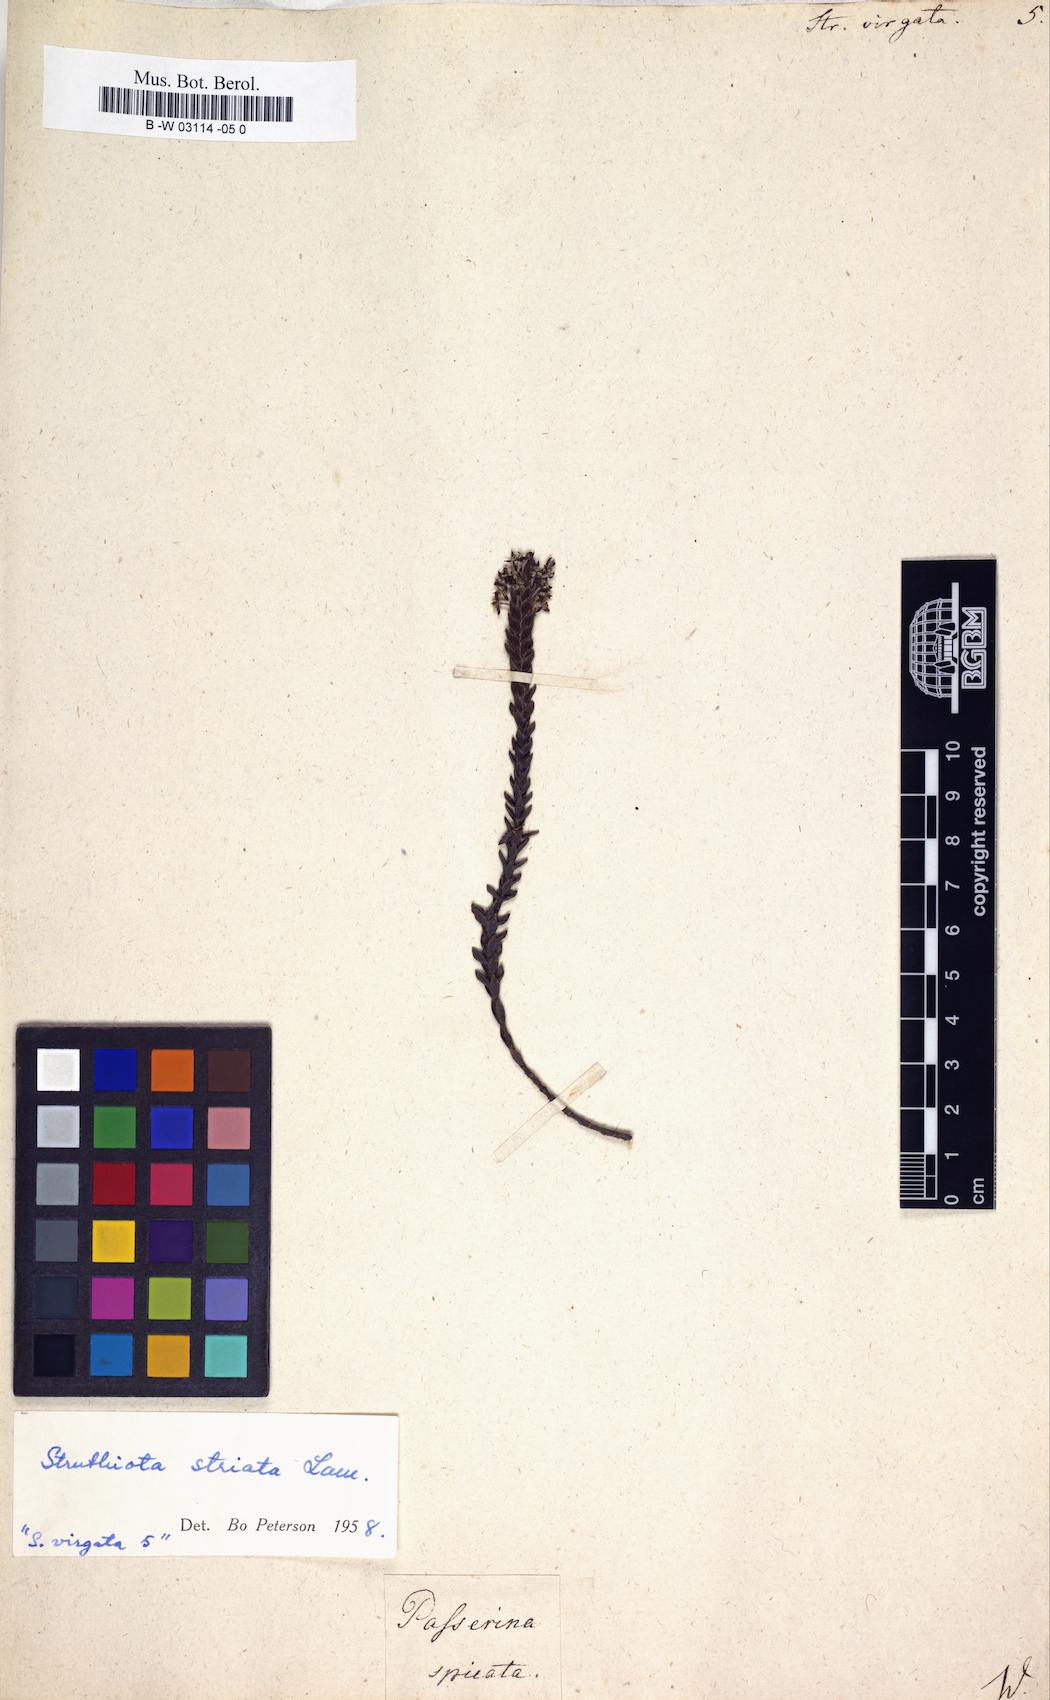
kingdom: Plantae
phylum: Tracheophyta
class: Magnoliopsida
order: Malvales
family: Thymelaeaceae
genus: Struthiola
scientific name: Struthiola
